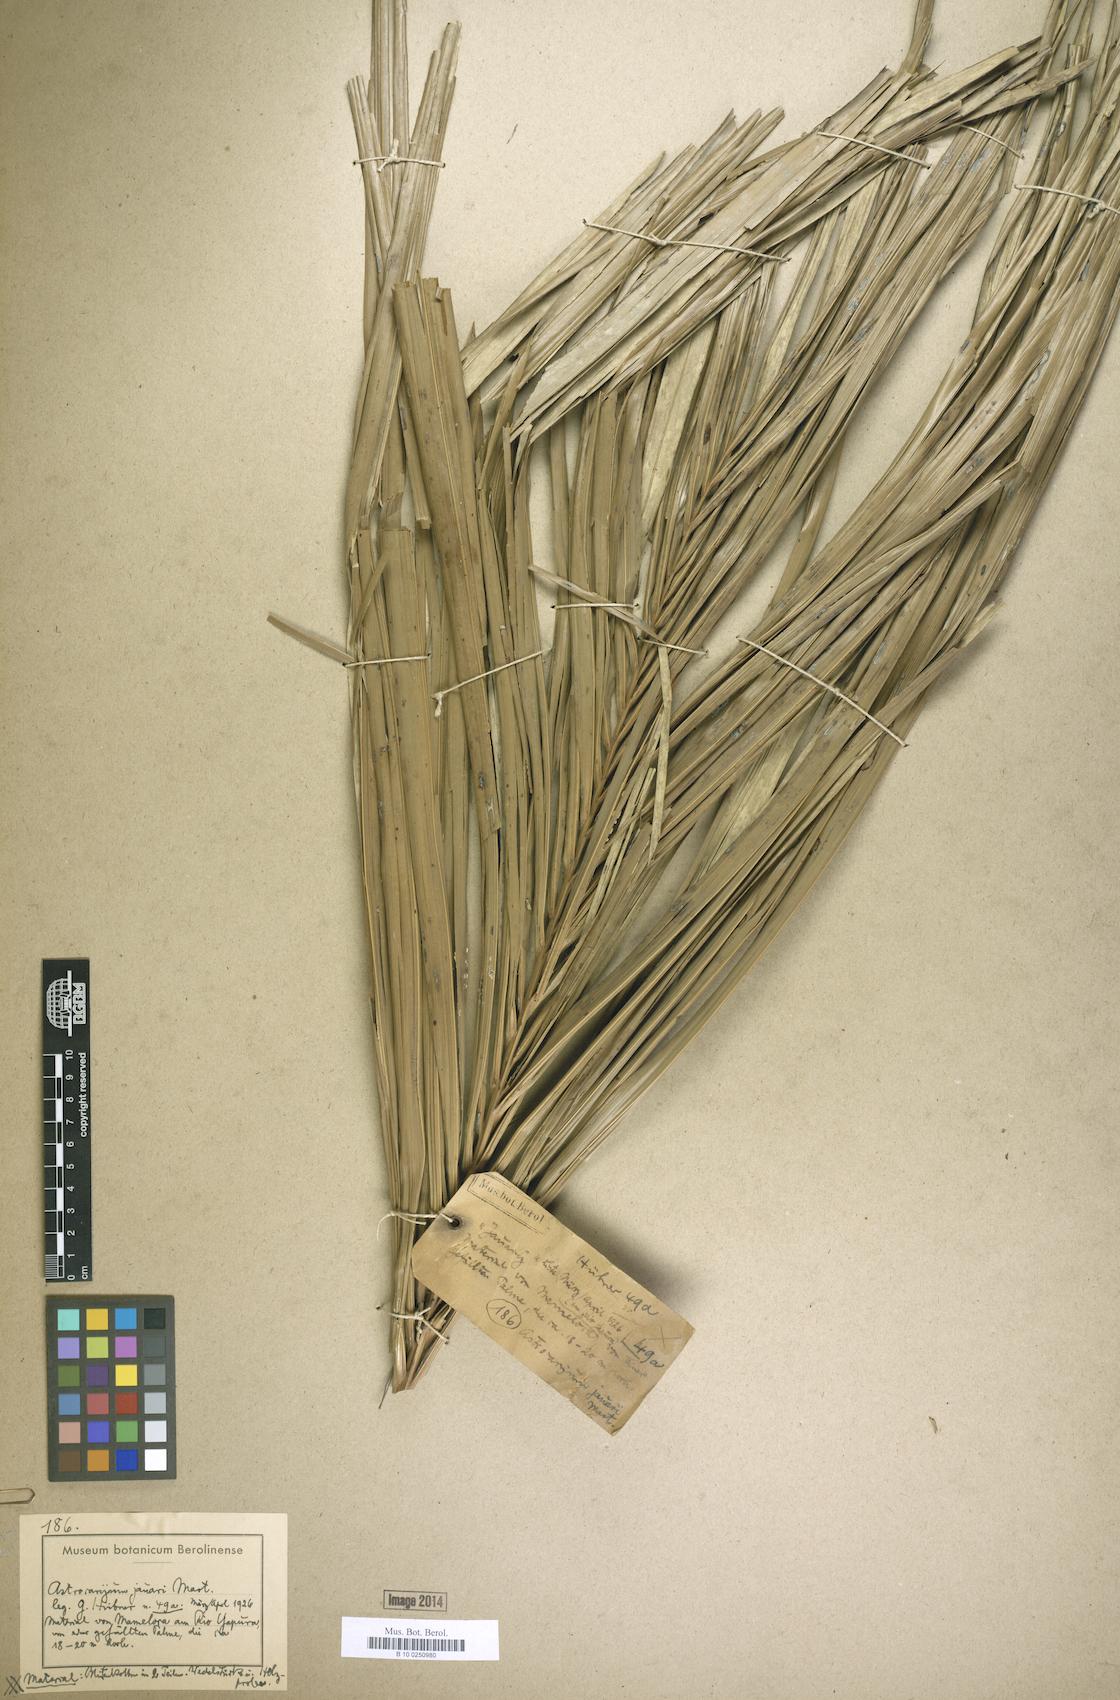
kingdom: Plantae
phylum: Tracheophyta
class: Liliopsida
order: Arecales
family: Arecaceae
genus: Astrocaryum
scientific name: Astrocaryum jauari
